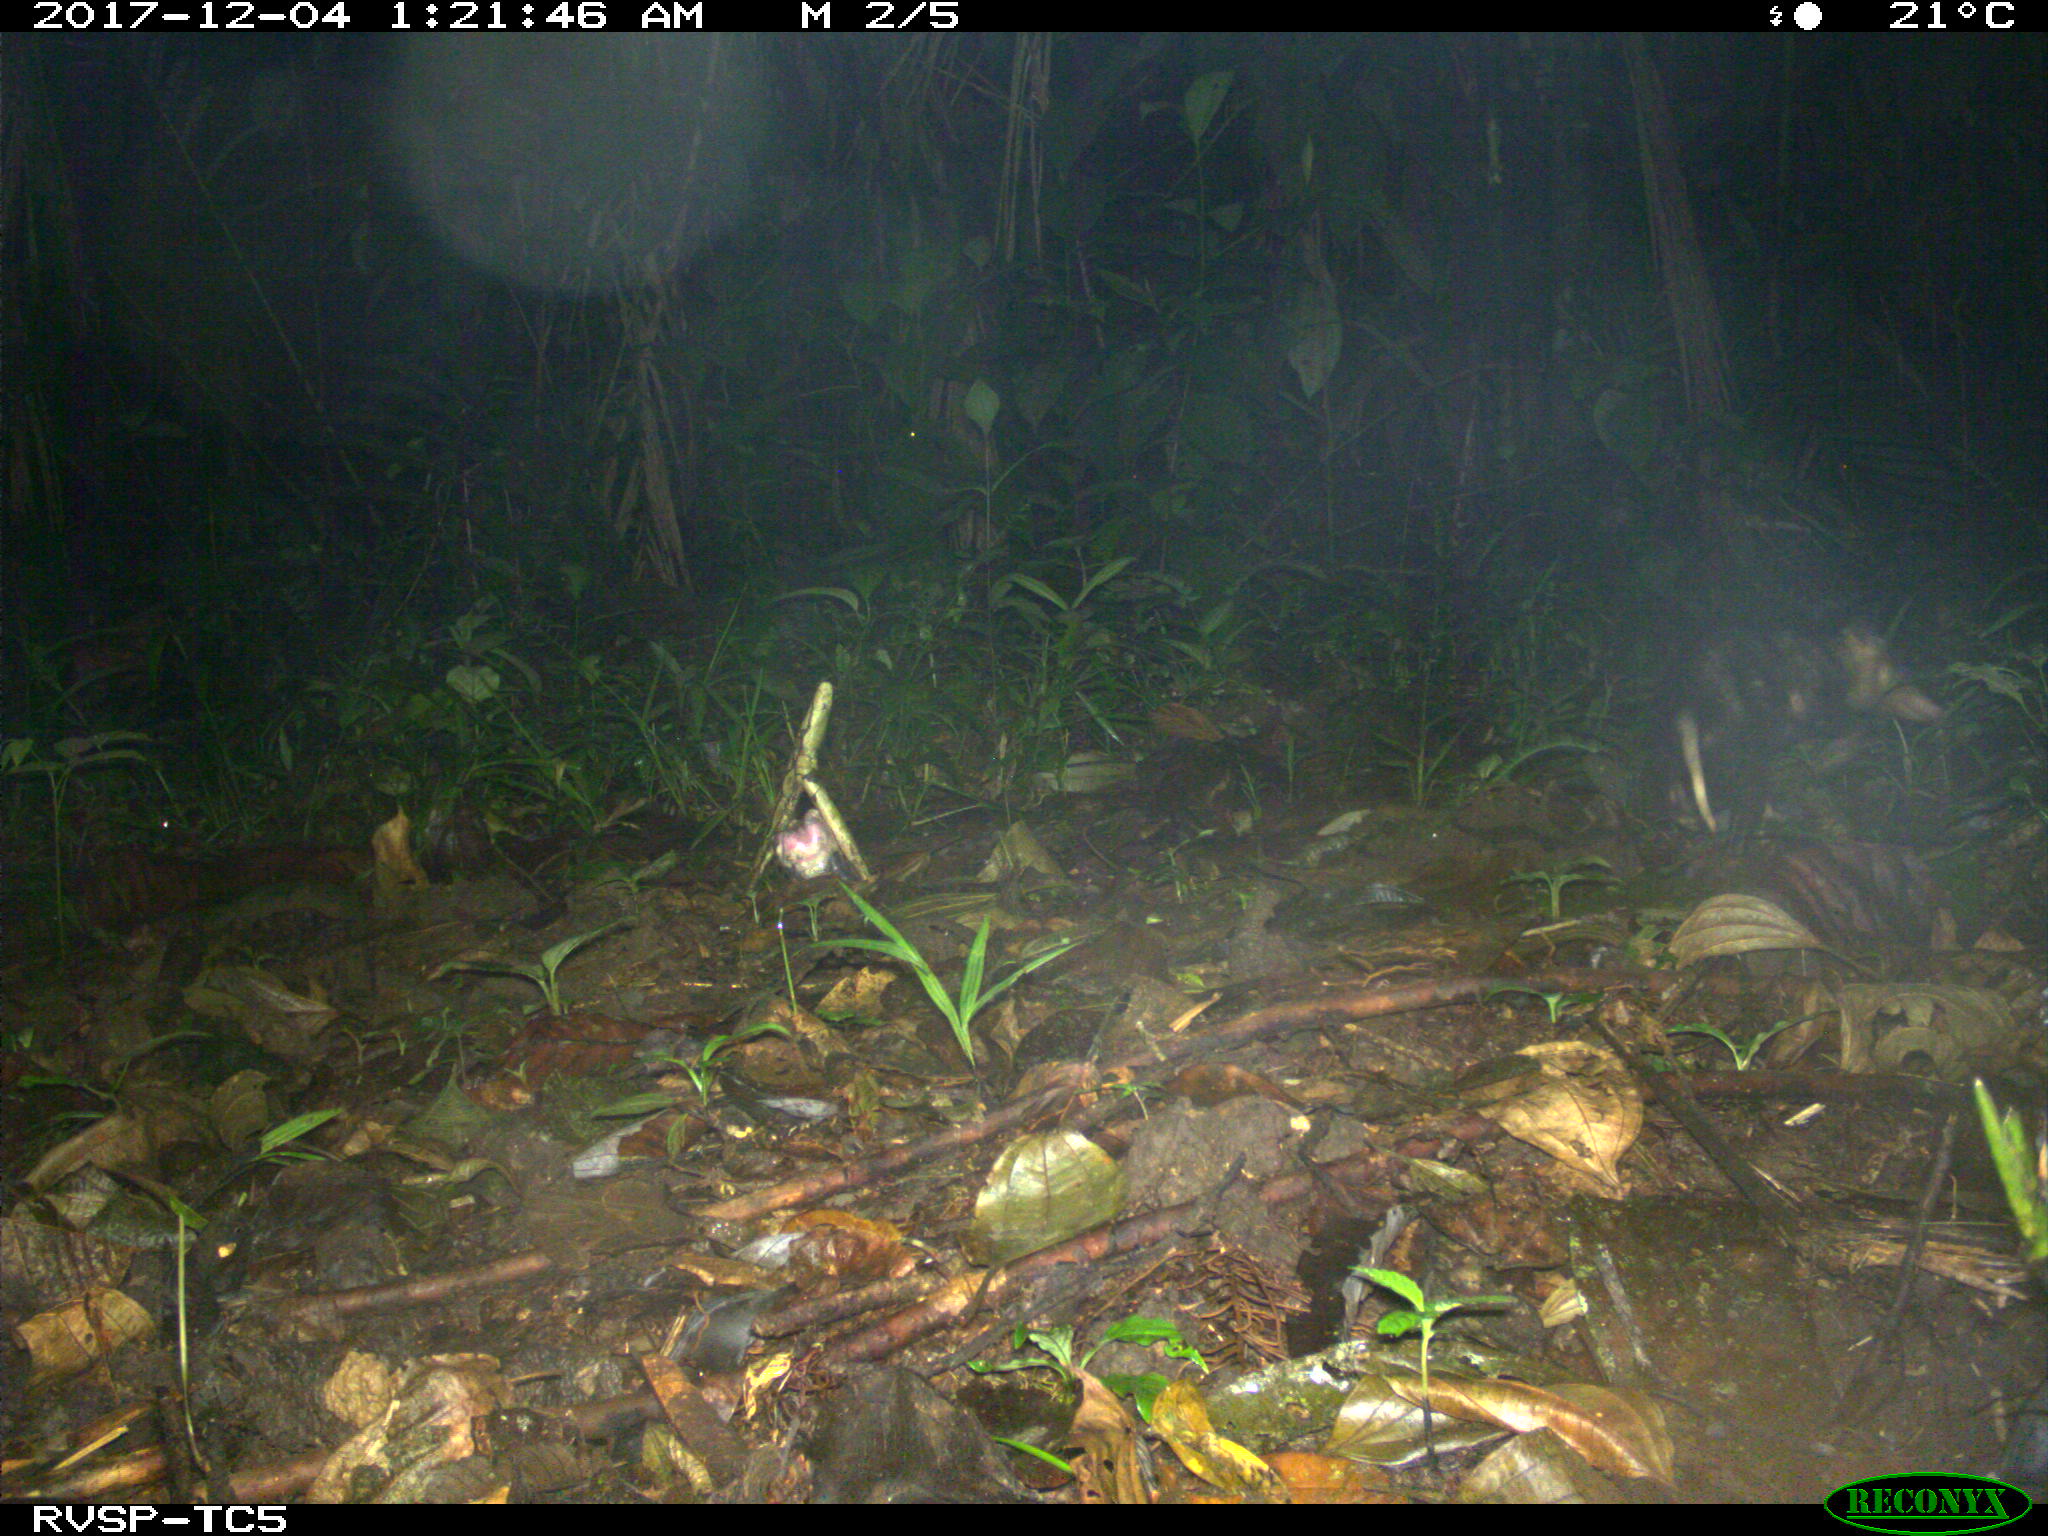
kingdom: Animalia
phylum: Chordata
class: Mammalia
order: Didelphimorphia
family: Didelphidae
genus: Didelphis
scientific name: Didelphis marsupialis
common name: Common opossum
